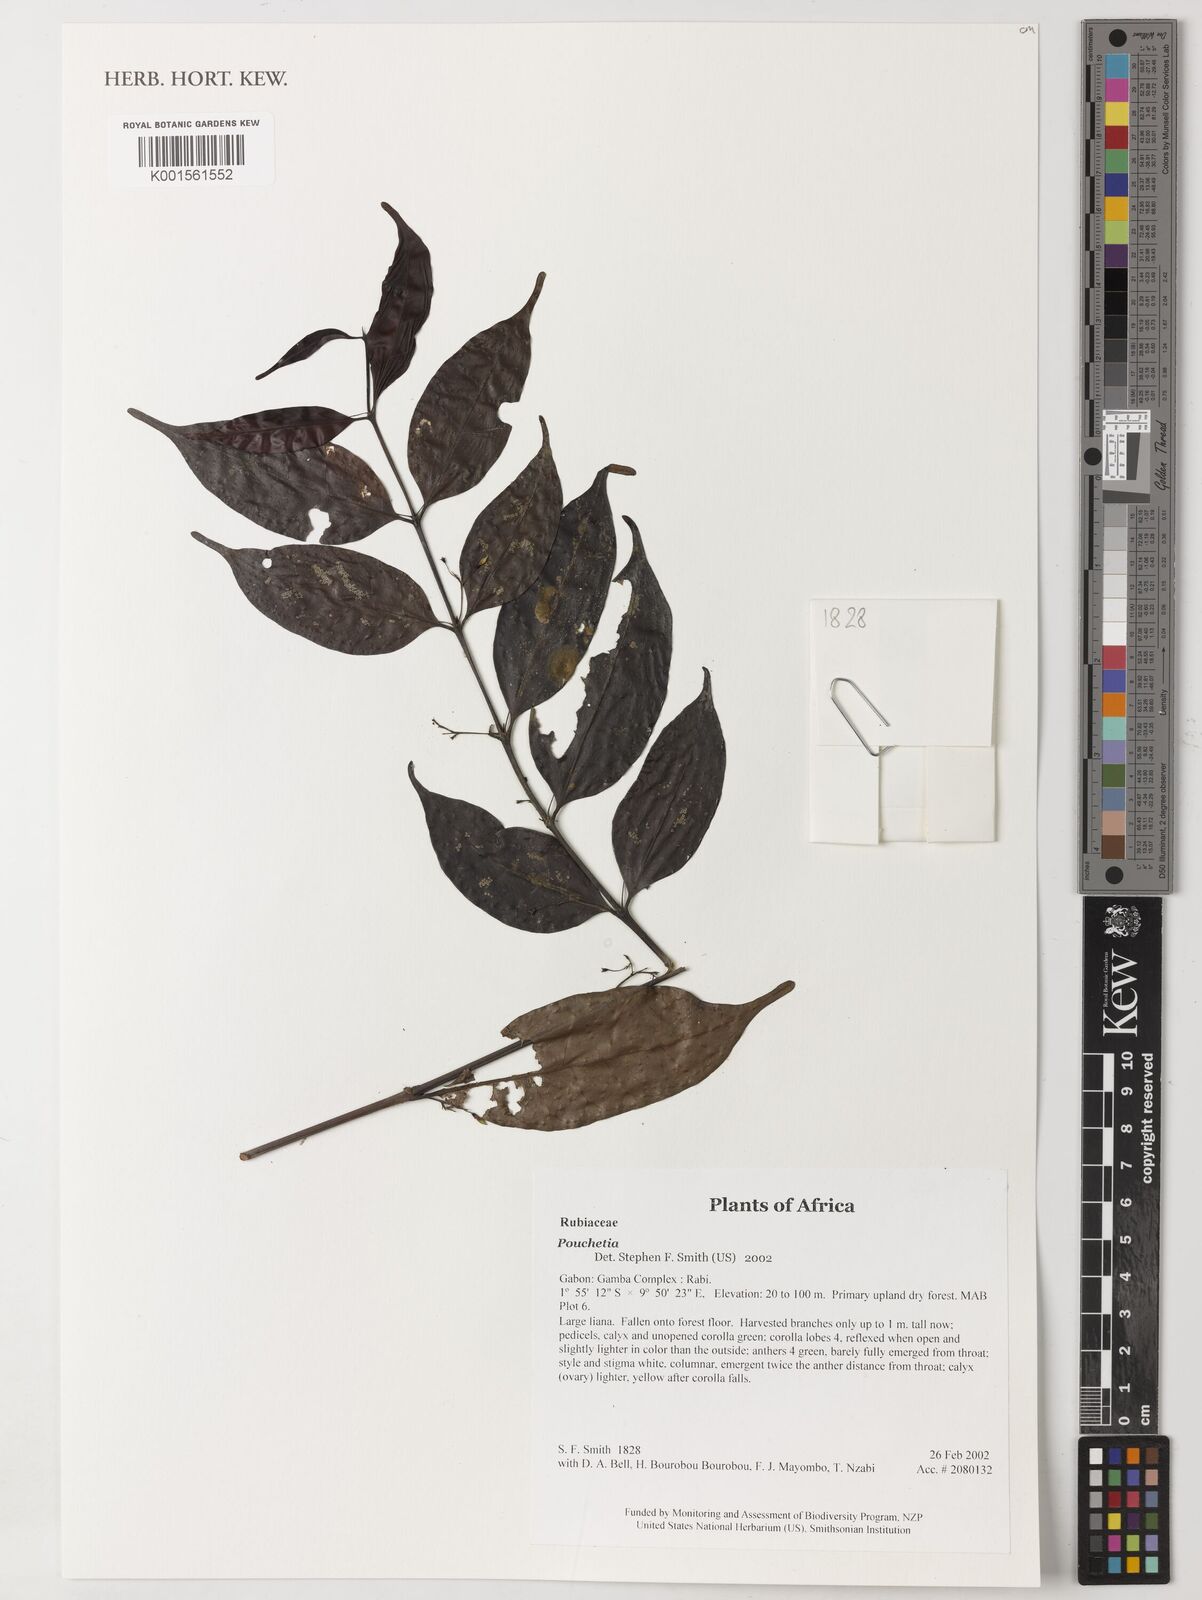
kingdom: Plantae
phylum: Tracheophyta
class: Magnoliopsida
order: Gentianales
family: Rubiaceae
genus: Pouchetia
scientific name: Pouchetia
